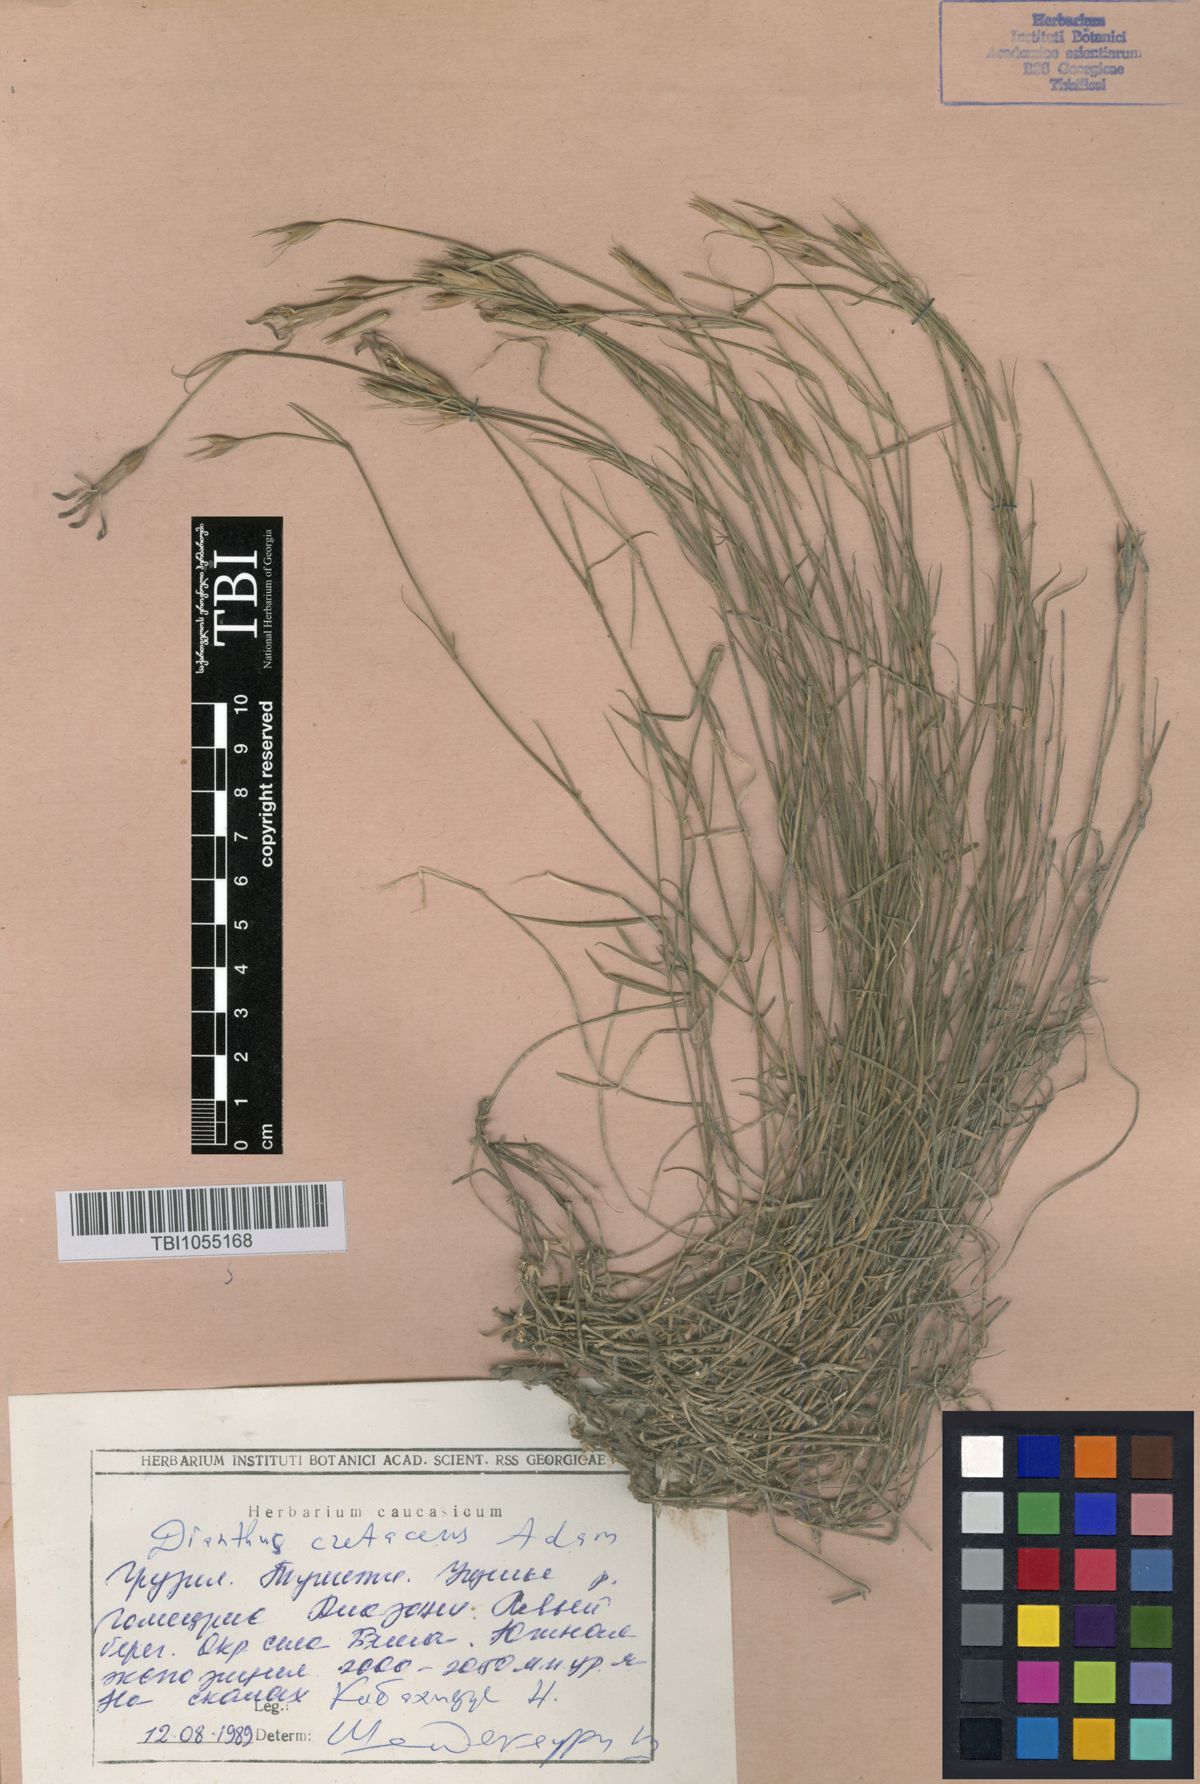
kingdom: Plantae
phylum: Tracheophyta
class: Magnoliopsida
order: Caryophyllales
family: Caryophyllaceae
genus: Dianthus
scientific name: Dianthus cretaceus
